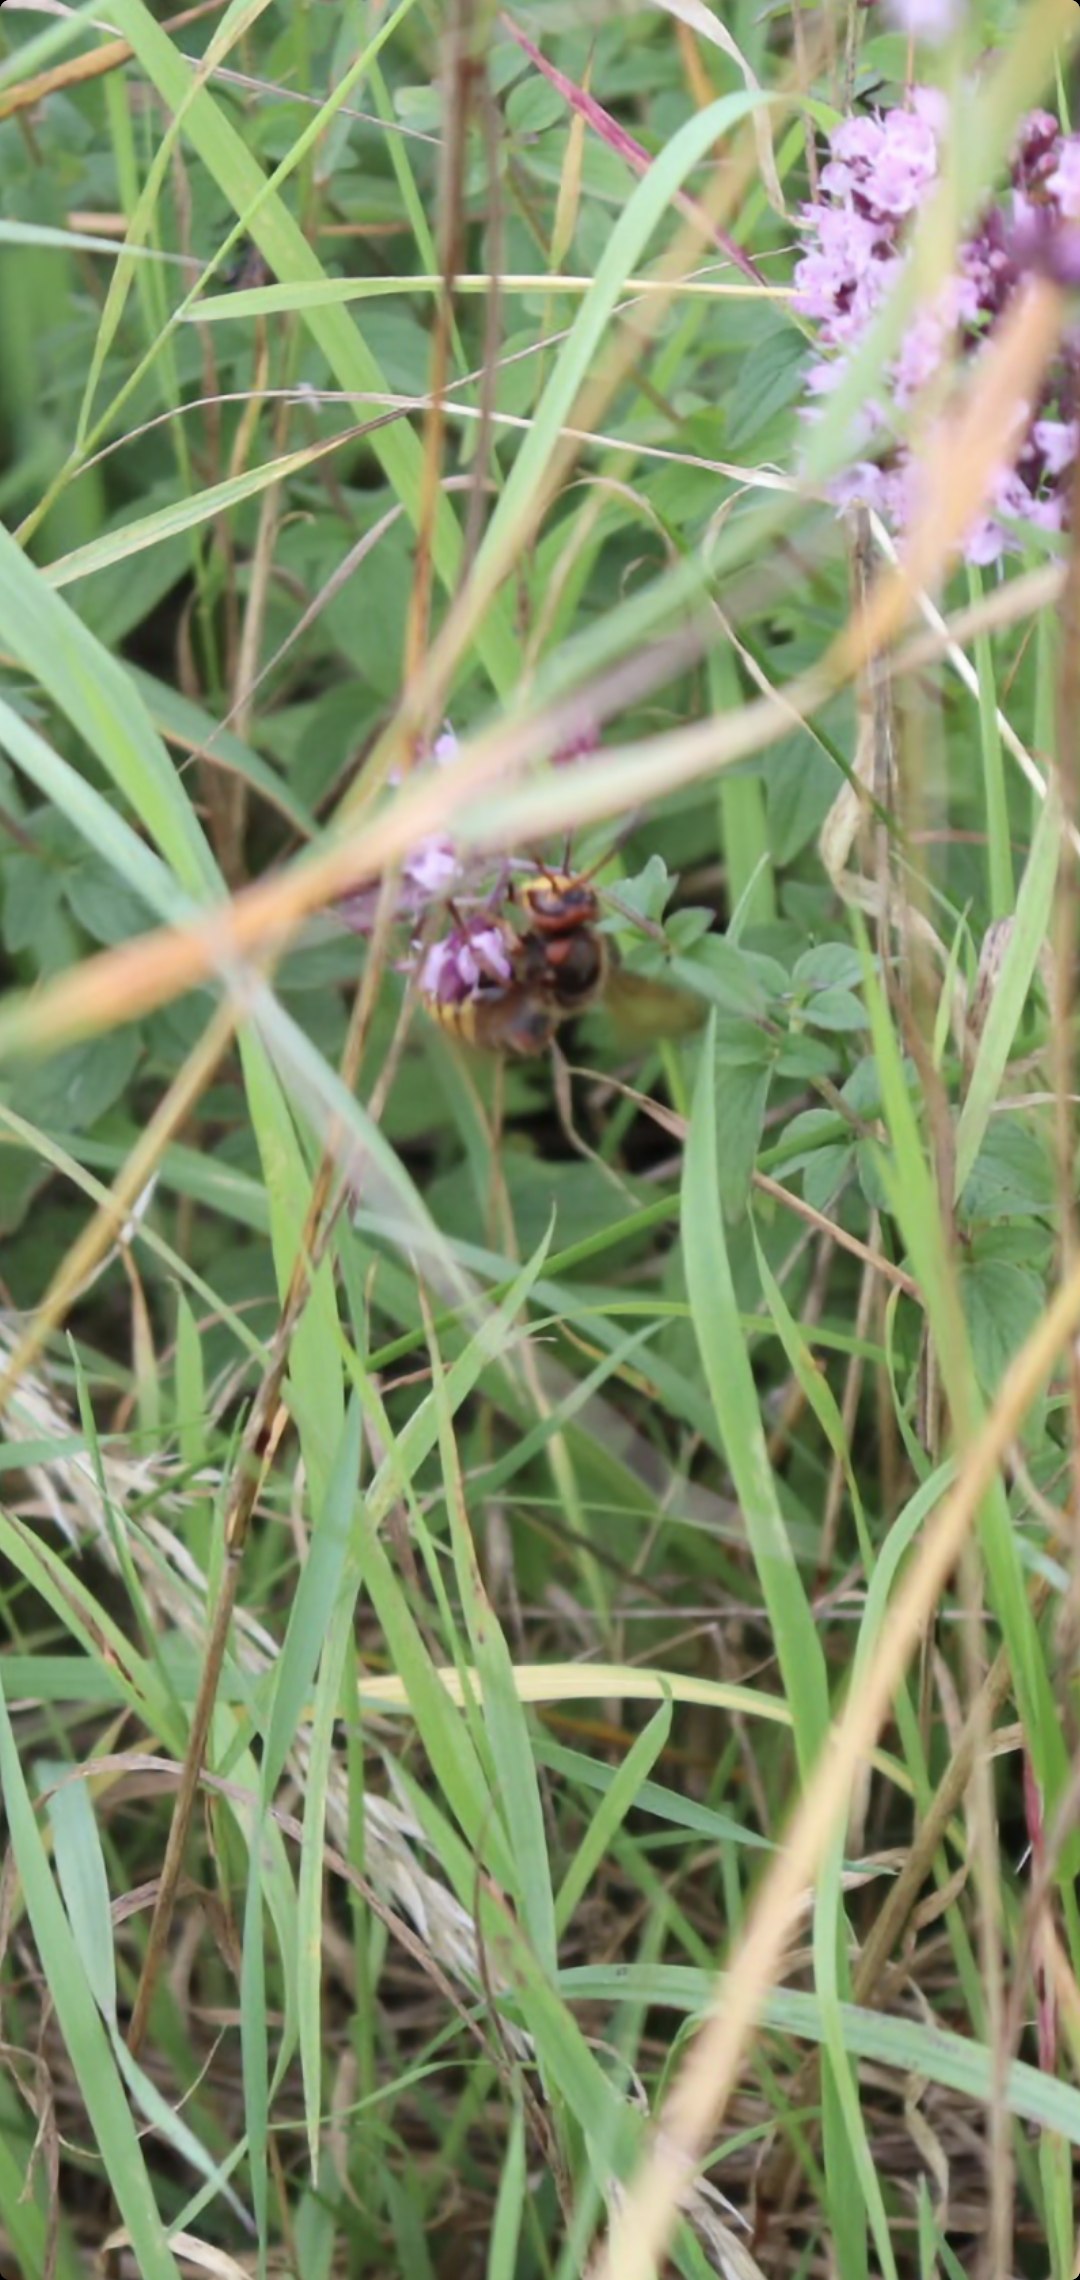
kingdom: Animalia
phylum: Arthropoda
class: Insecta
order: Hymenoptera
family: Vespidae
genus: Vespa
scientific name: Vespa crabro
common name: Stor gedehams
